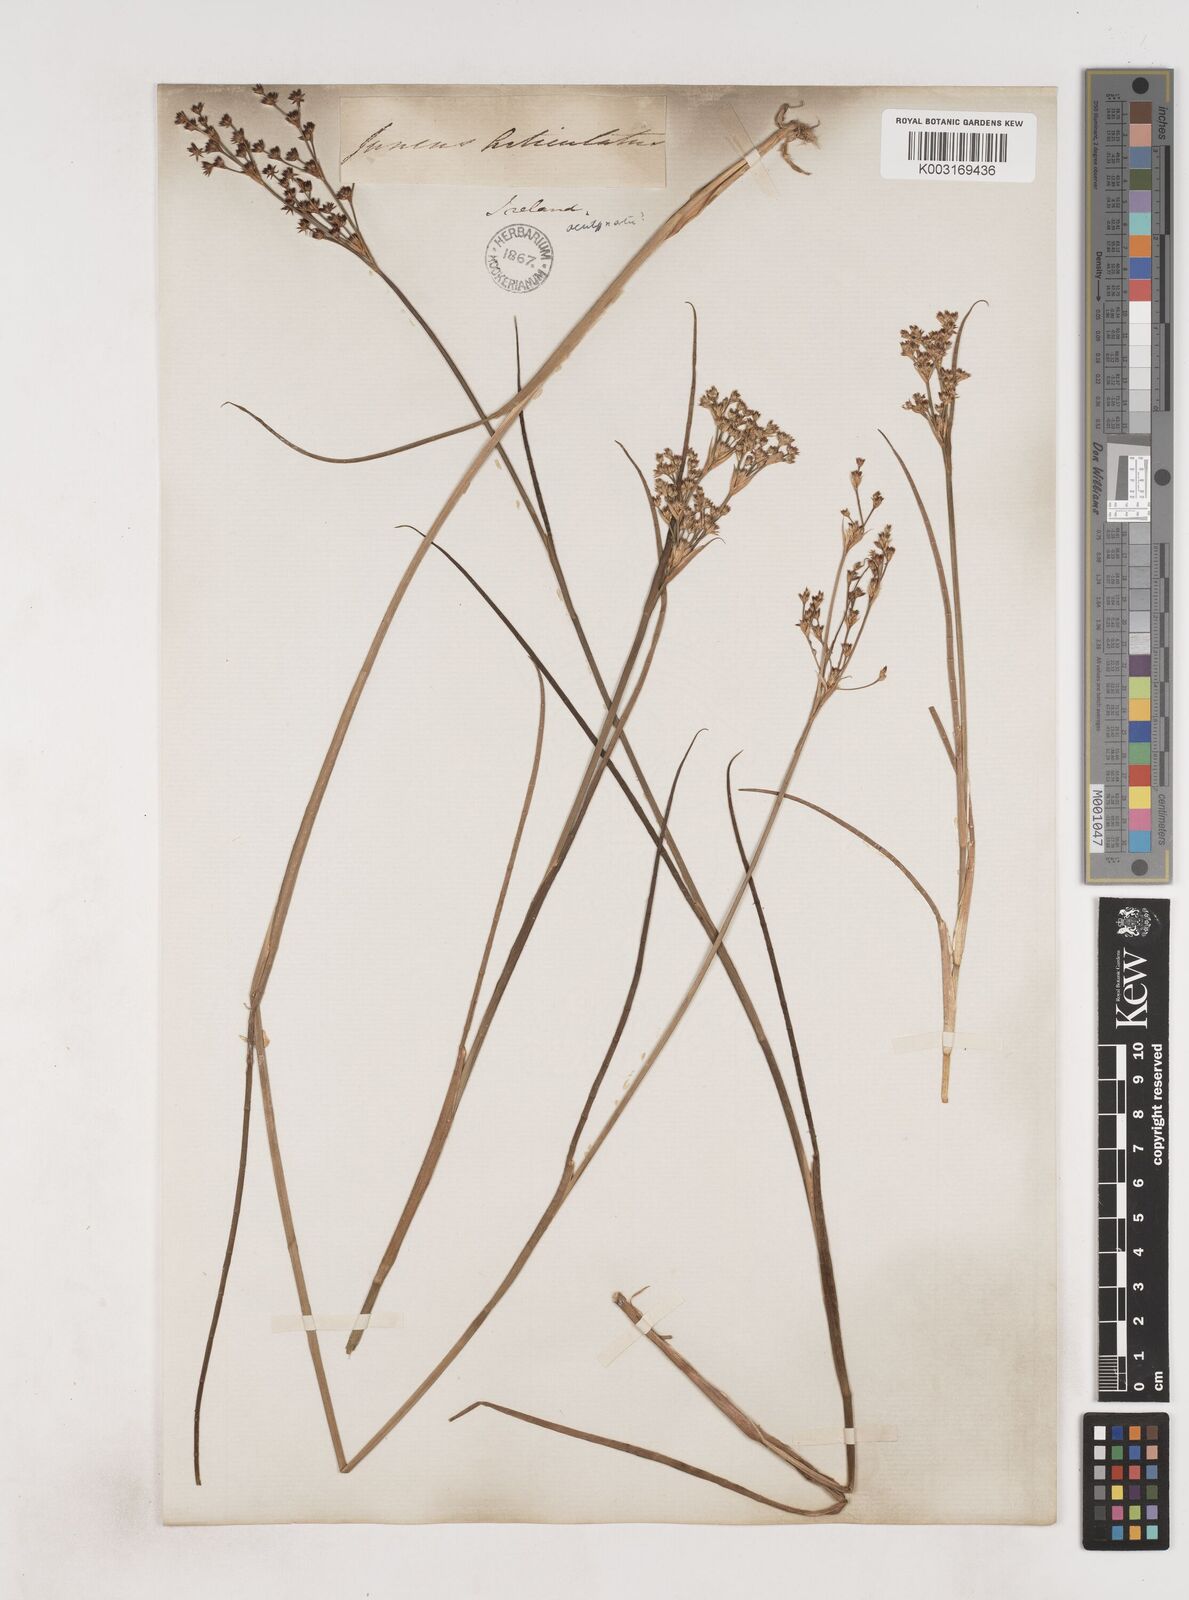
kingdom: Plantae
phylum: Tracheophyta
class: Liliopsida
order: Poales
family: Juncaceae
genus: Juncus
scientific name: Juncus acutiflorus
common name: Sharp-flowered rush
